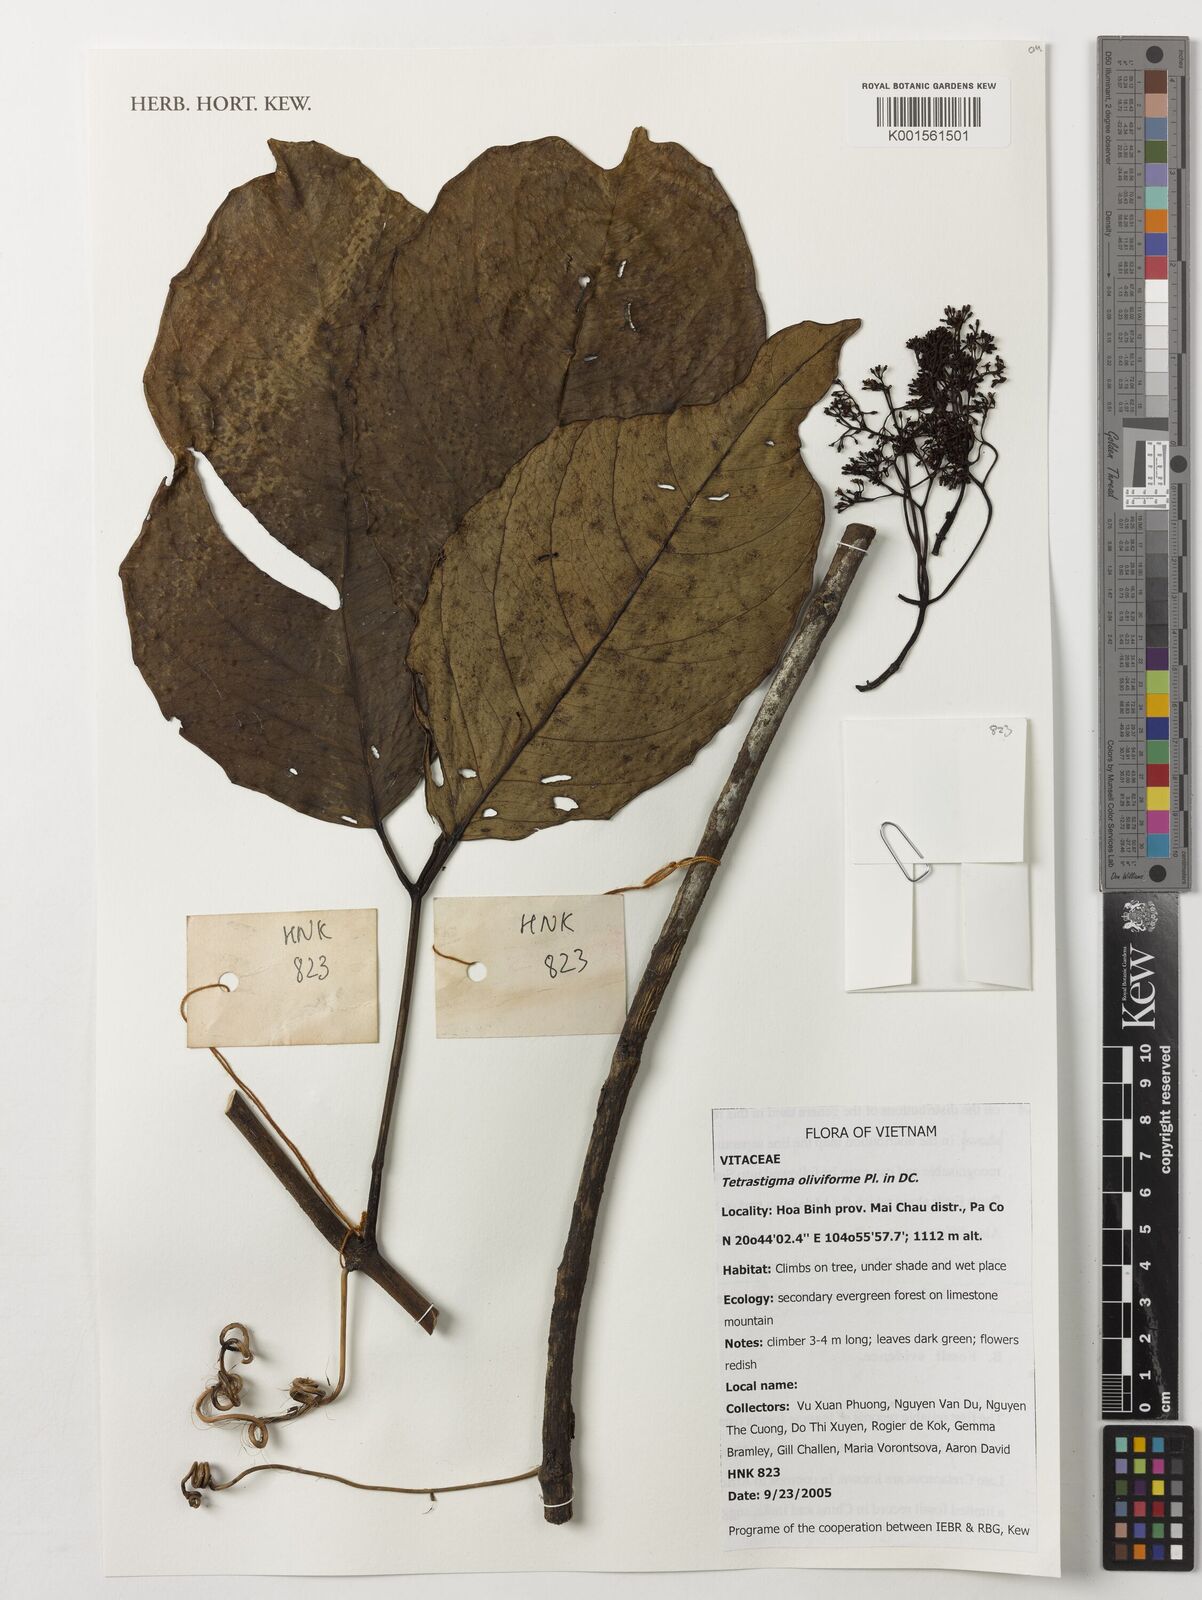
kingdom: Plantae
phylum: Tracheophyta
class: Magnoliopsida
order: Vitales
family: Vitaceae
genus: Tetrastigma
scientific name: Tetrastigma oliviforme
